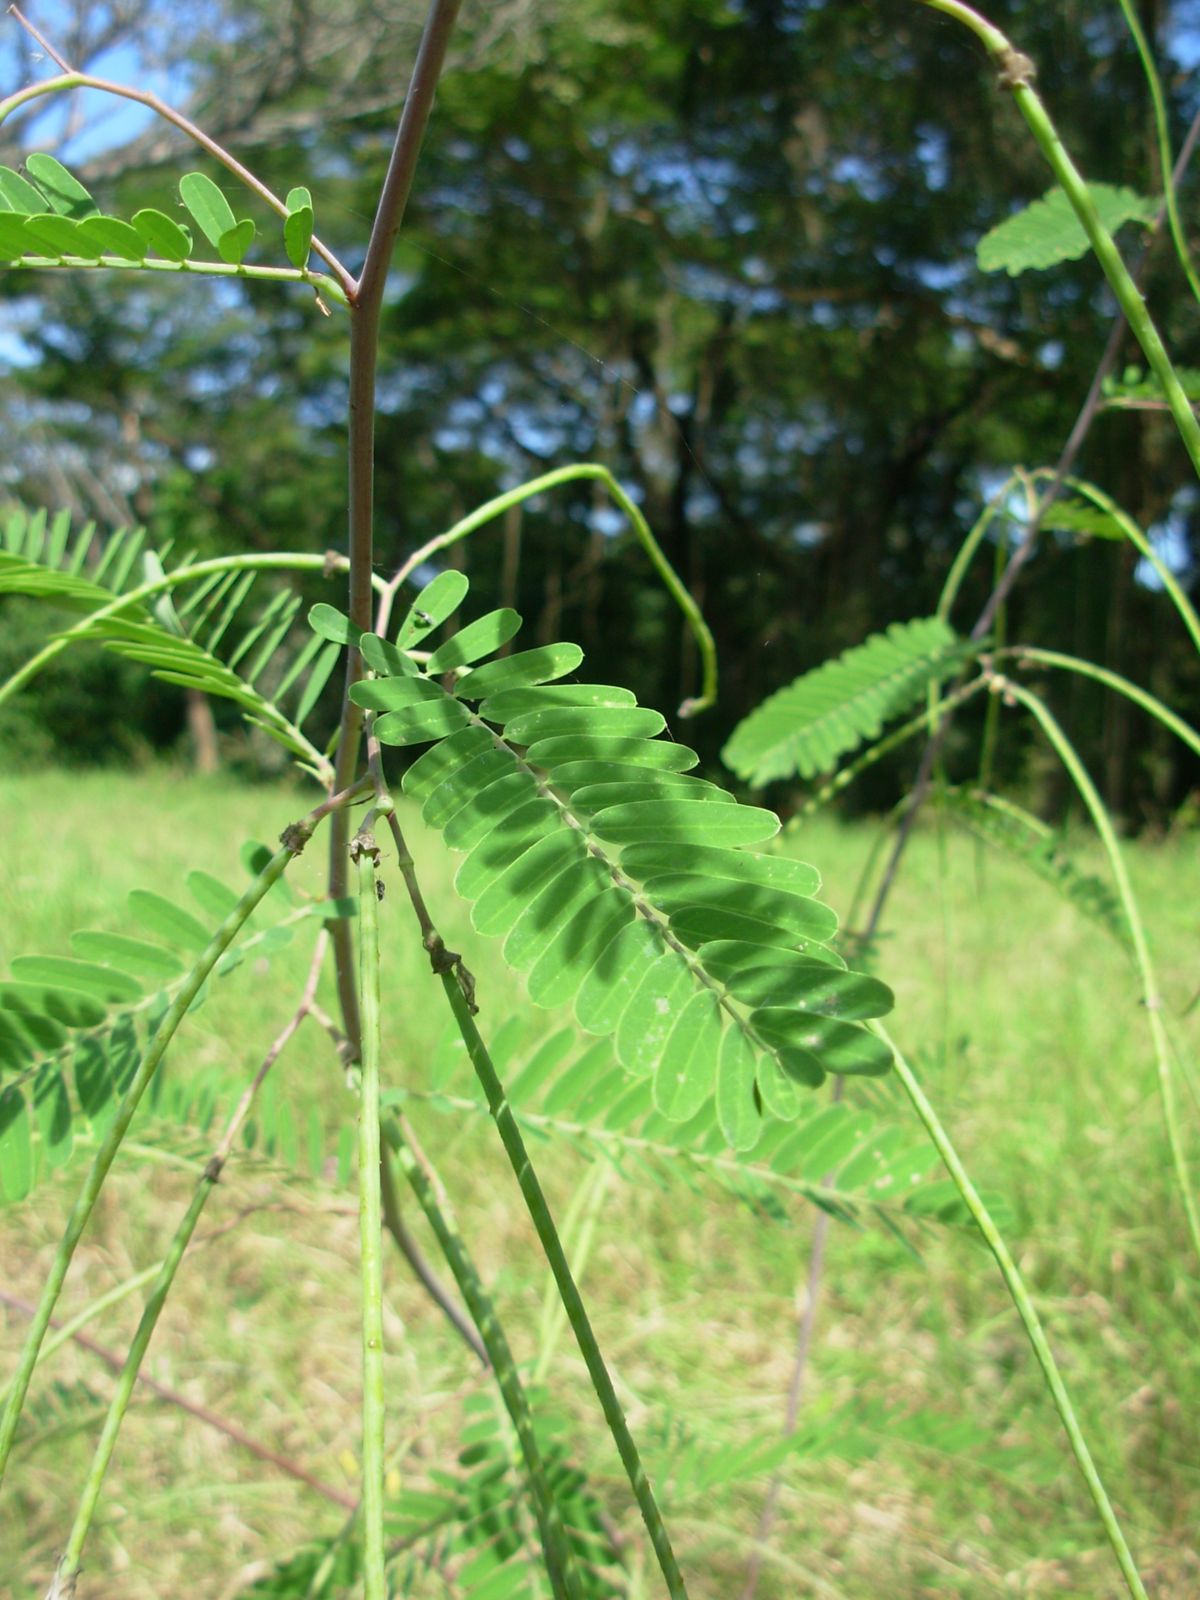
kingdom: Plantae
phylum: Tracheophyta
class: Magnoliopsida
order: Fabales
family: Fabaceae
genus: Sesbania
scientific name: Sesbania herbacea
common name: Bigpod sesbania
